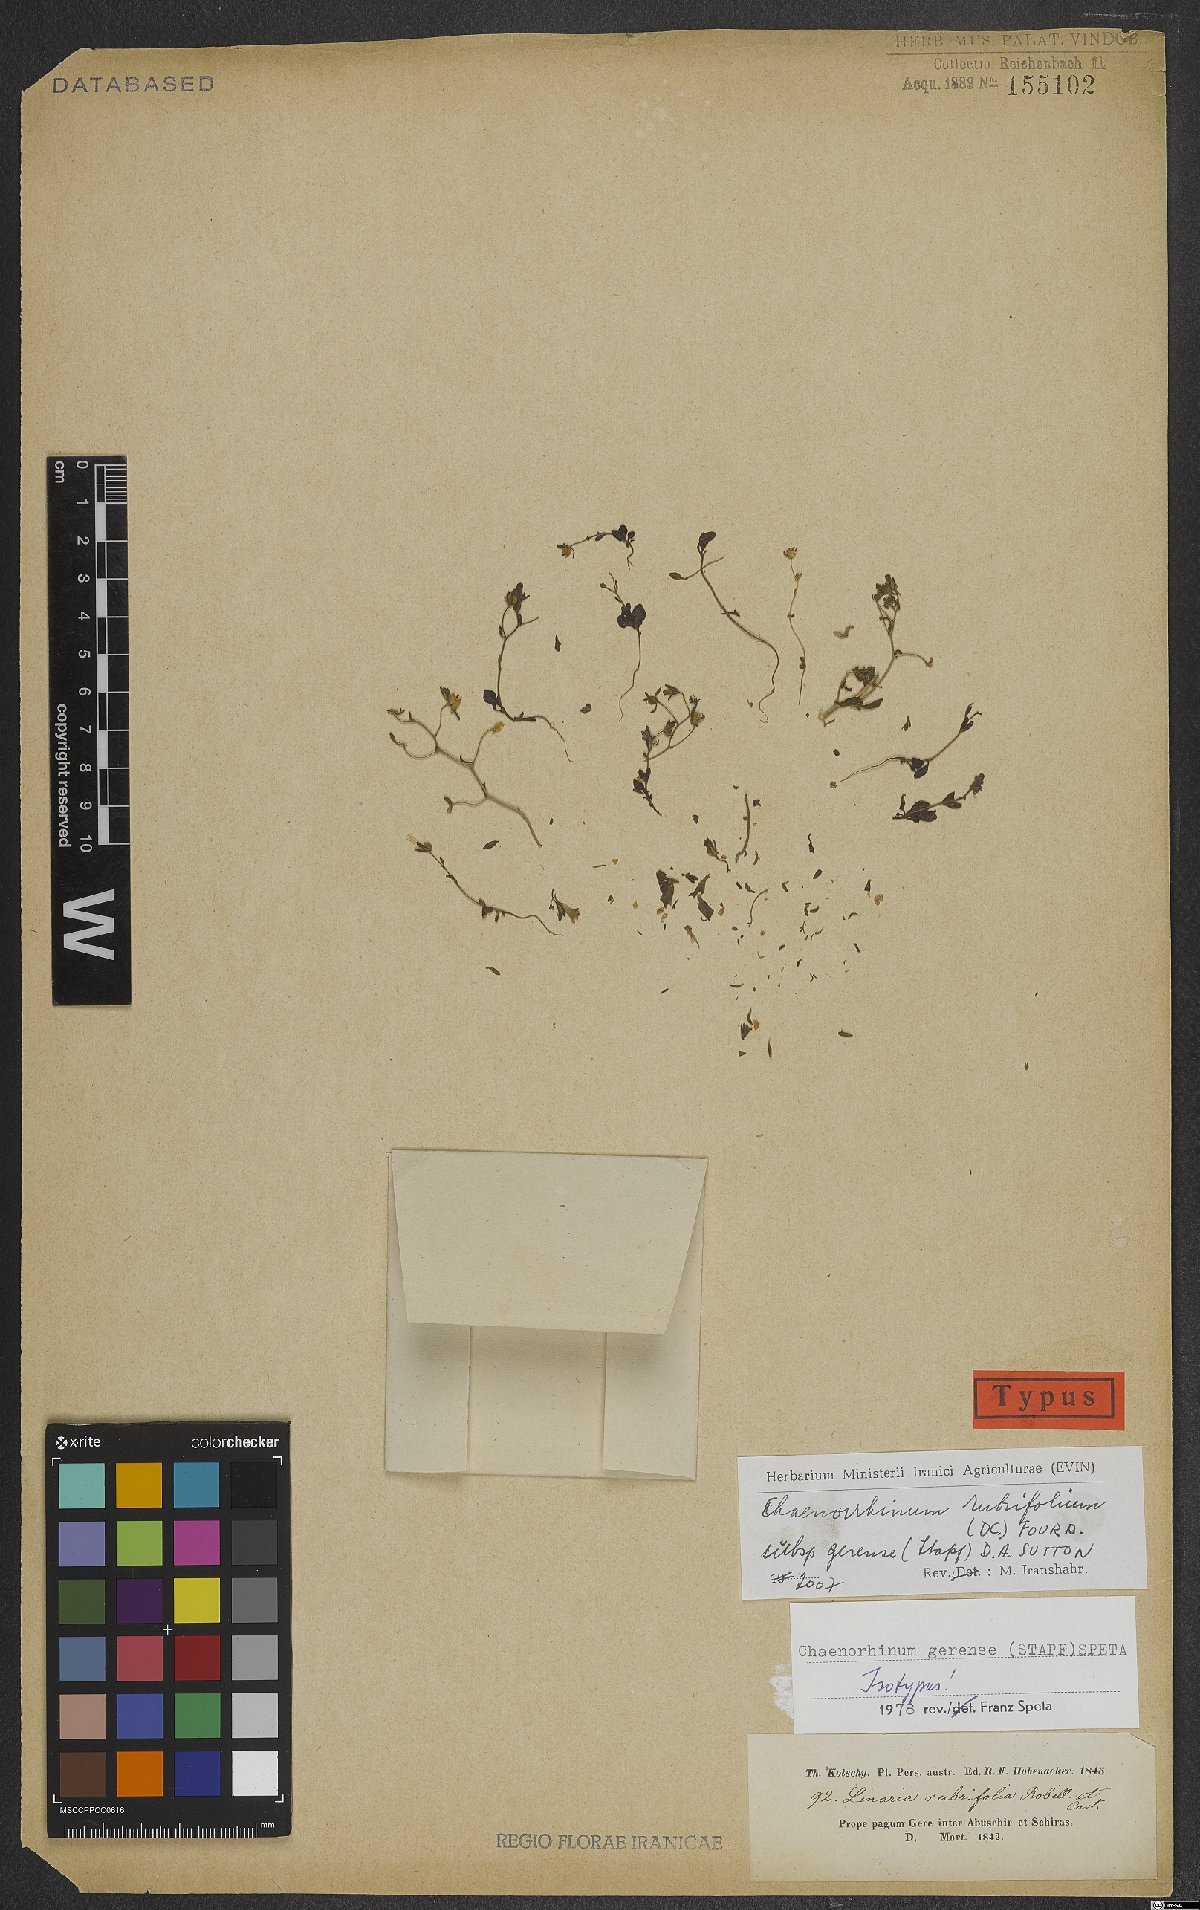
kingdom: Plantae
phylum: Tracheophyta
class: Magnoliopsida
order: Lamiales
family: Plantaginaceae
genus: Chaenorhinum
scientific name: Chaenorhinum rubrifolium
